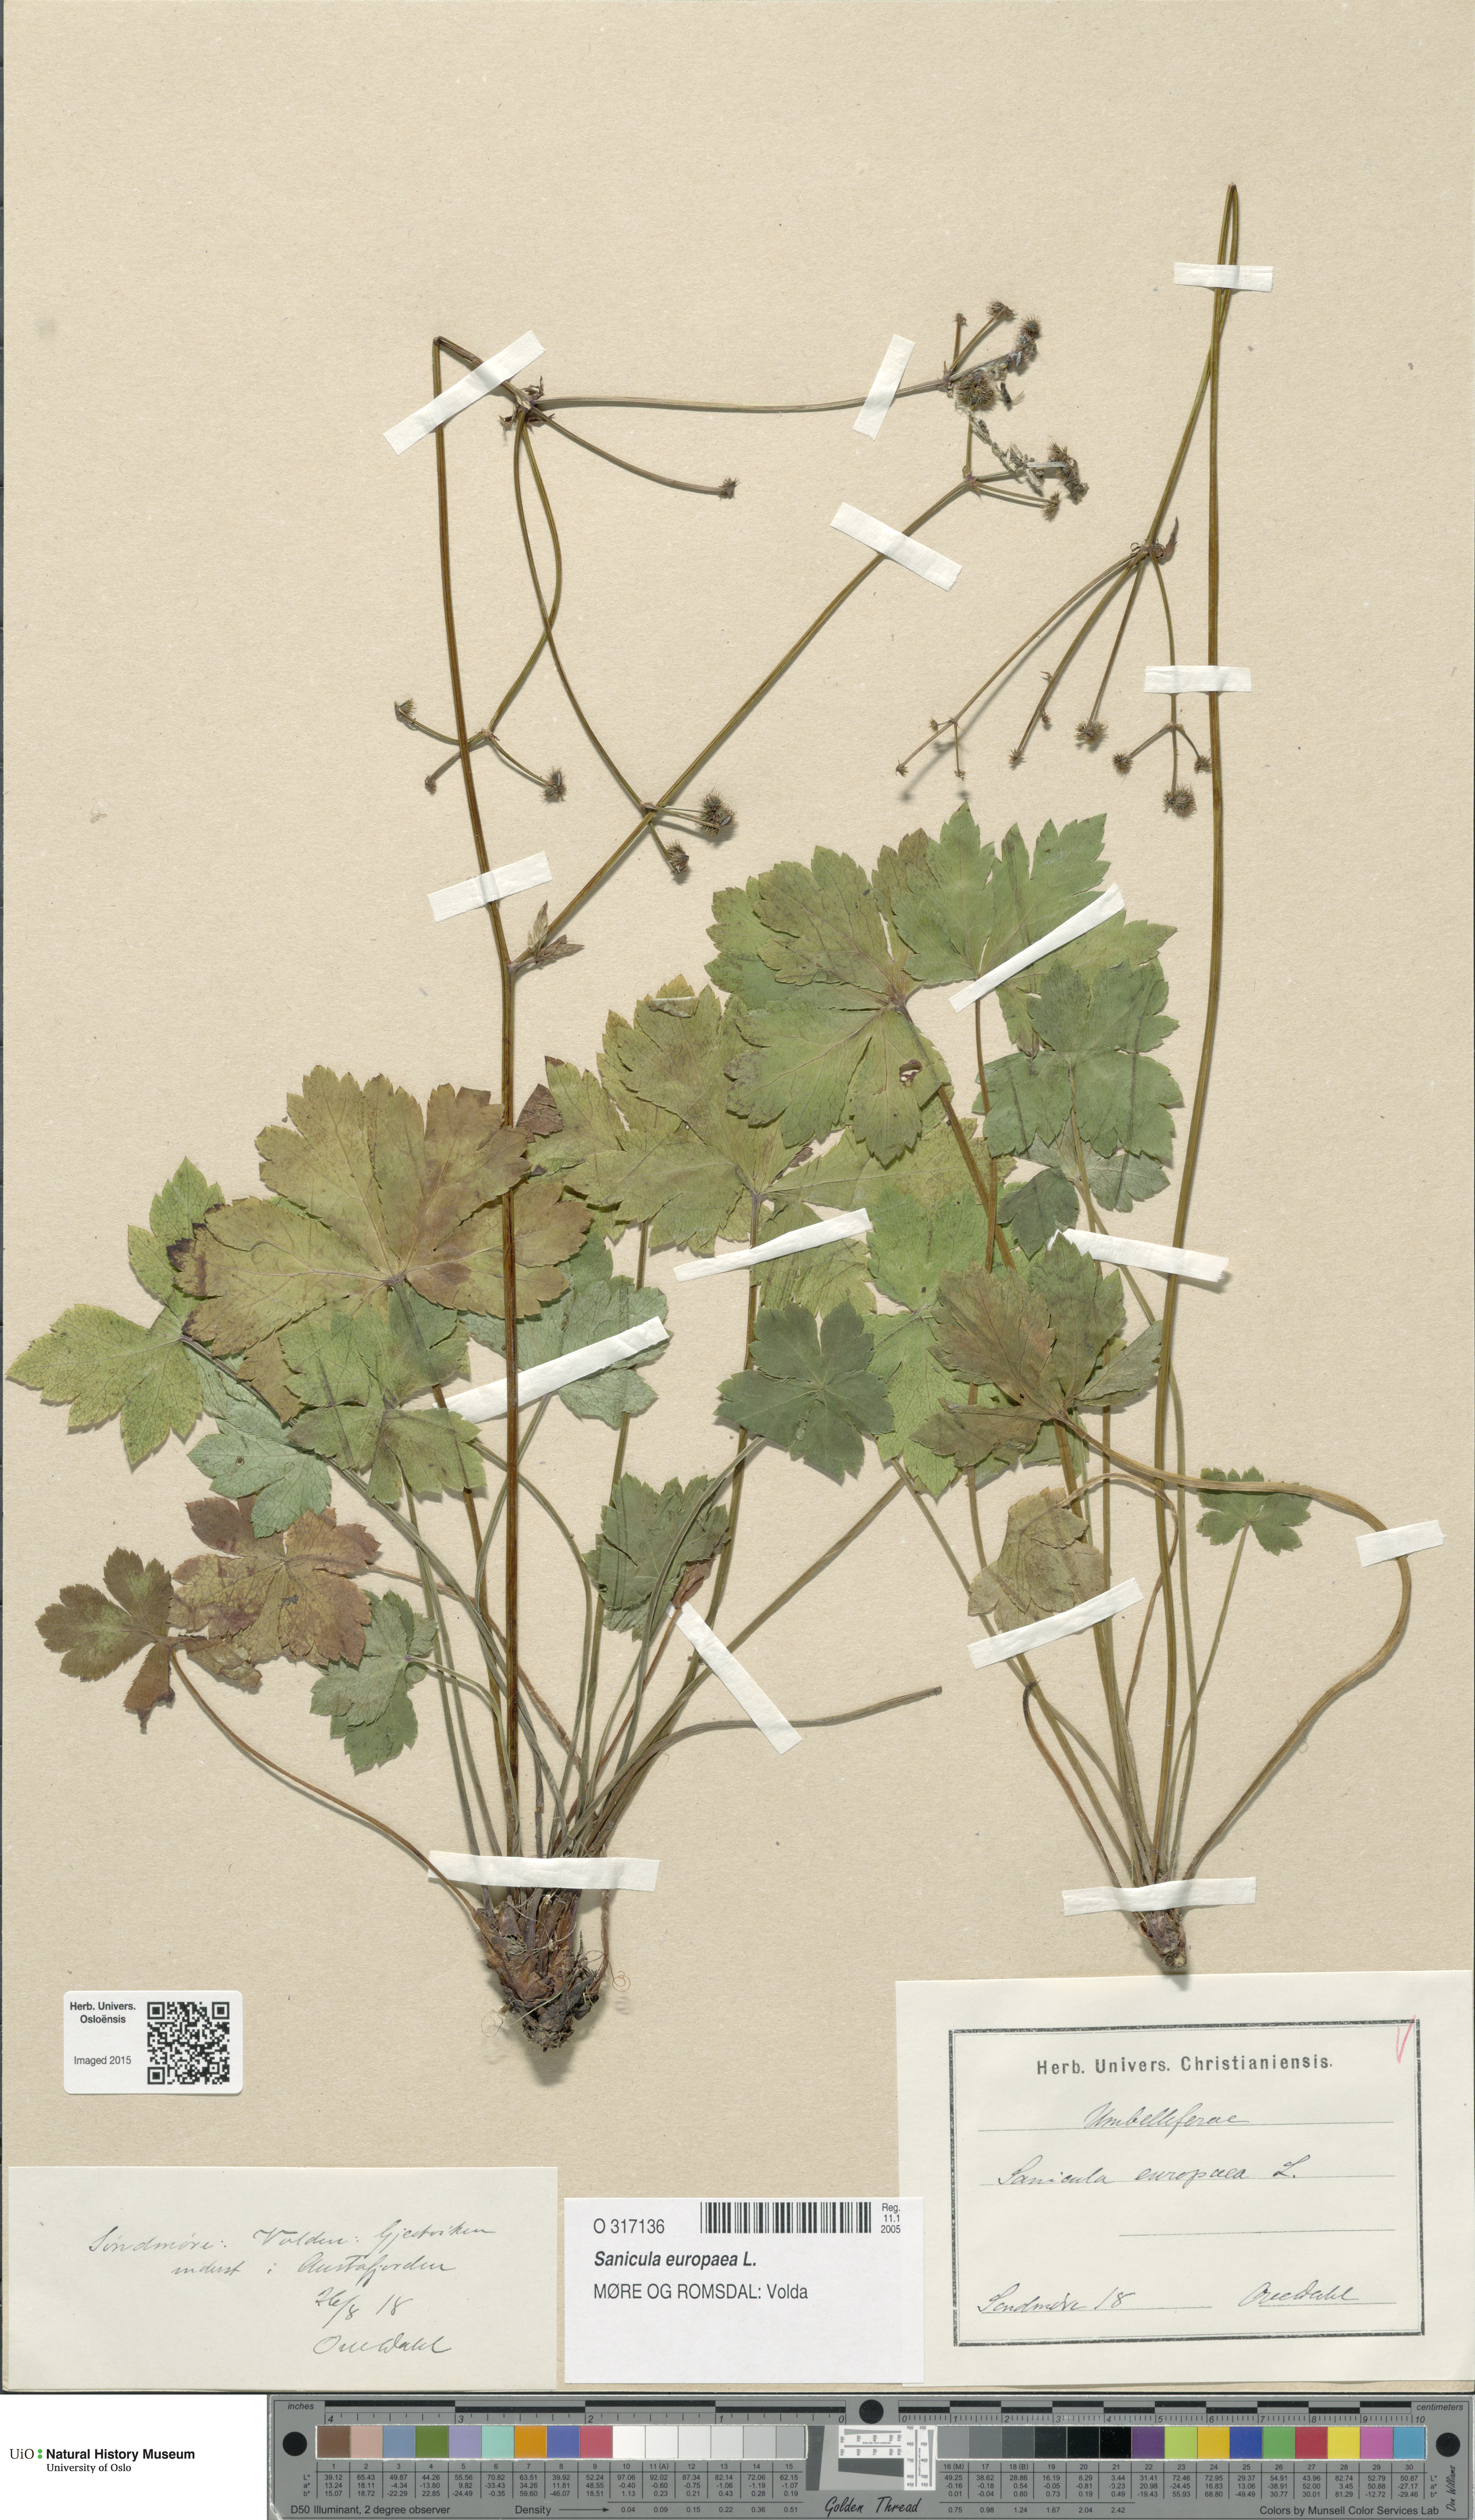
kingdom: Plantae
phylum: Tracheophyta
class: Magnoliopsida
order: Apiales
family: Apiaceae
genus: Sanicula
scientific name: Sanicula europaea
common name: Sanicle
